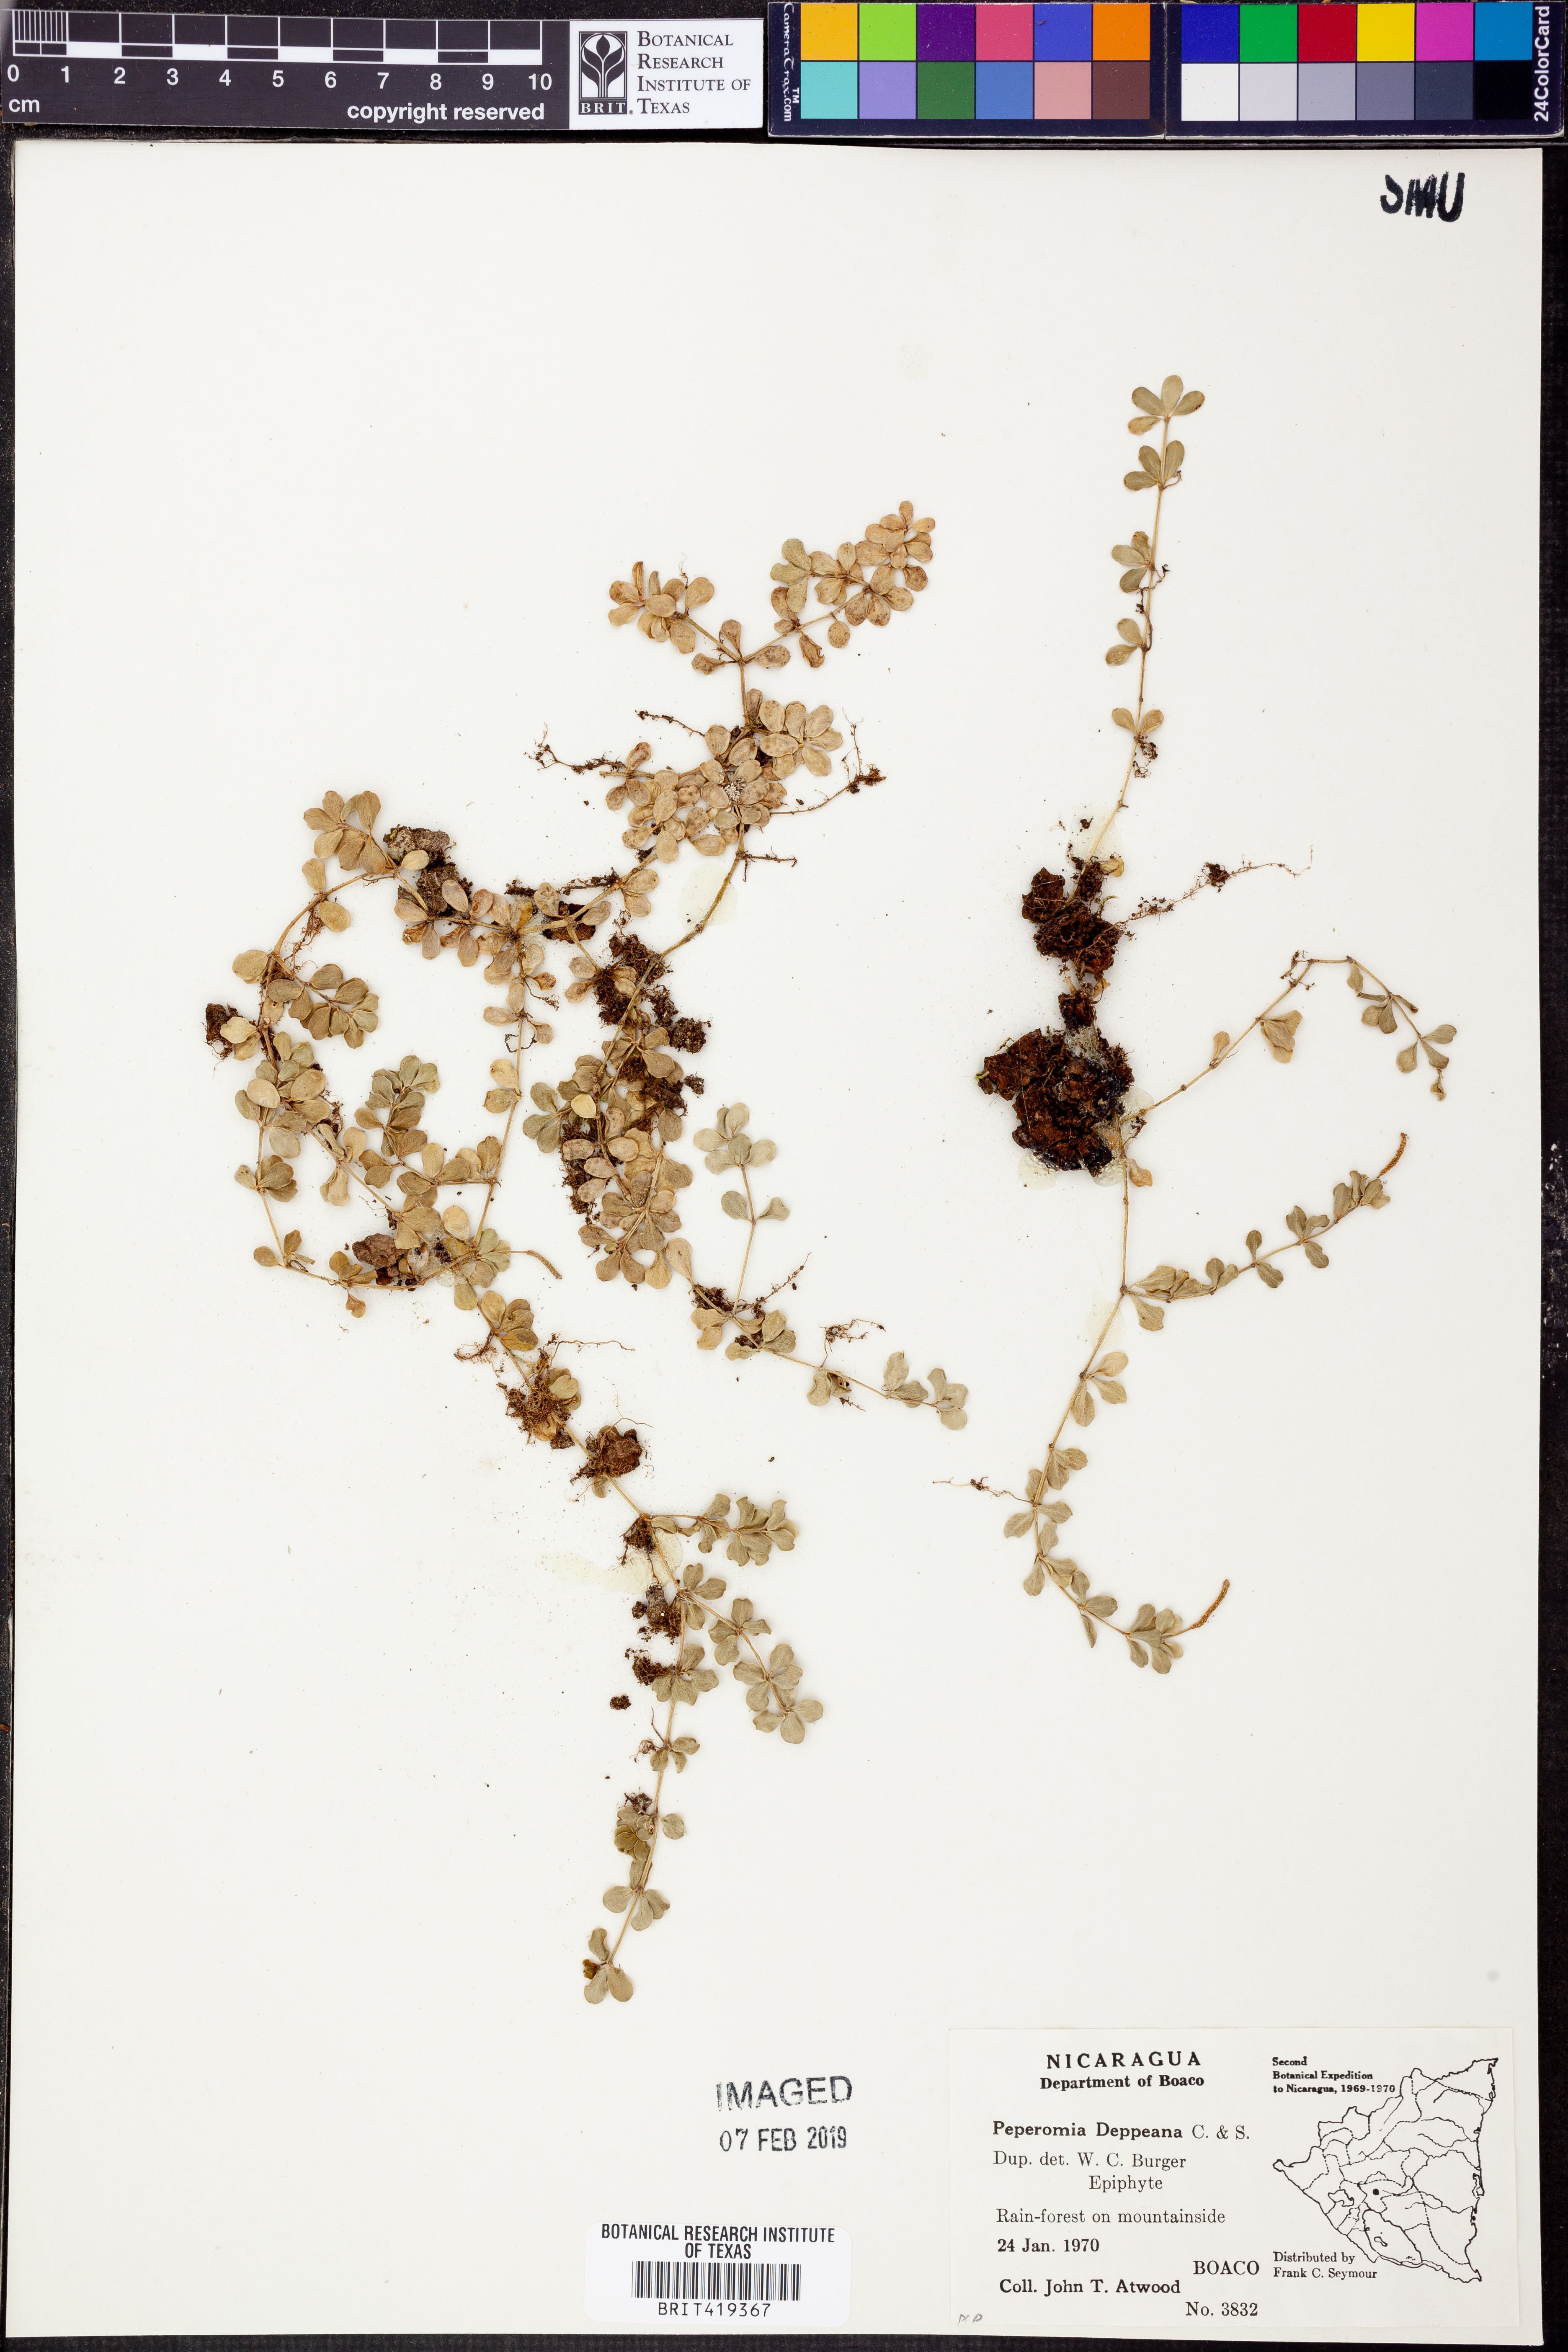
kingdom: Plantae
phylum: Tracheophyta
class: Magnoliopsida
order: Piperales
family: Piperaceae
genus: Peperomia
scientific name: Peperomia deppeana
